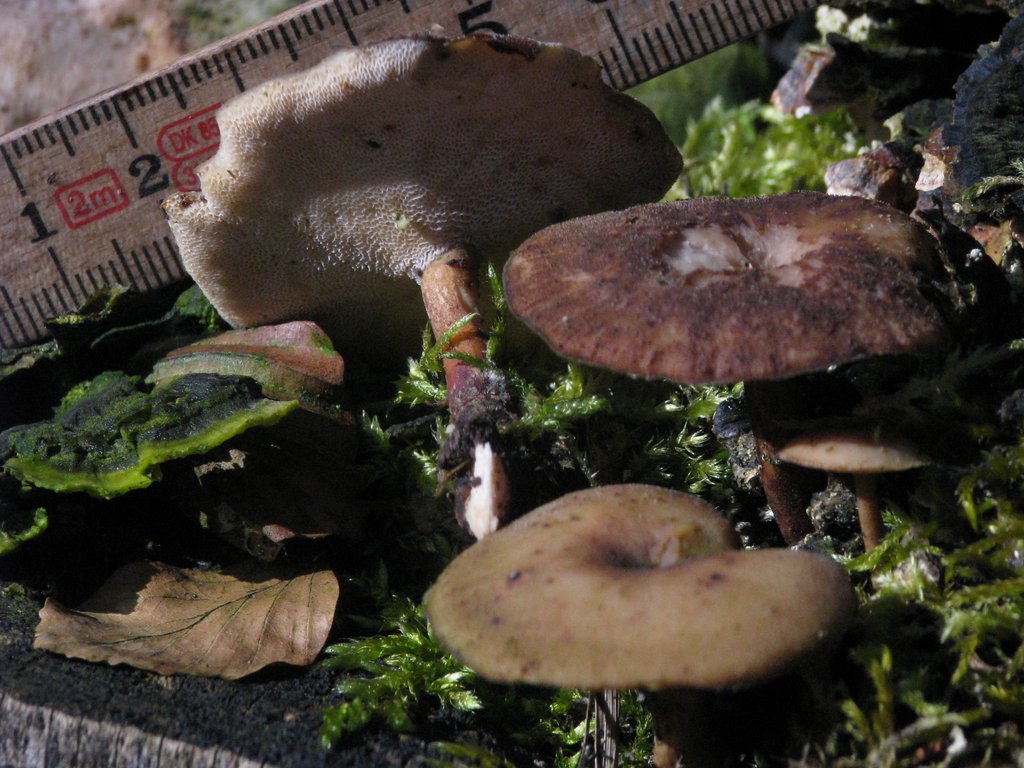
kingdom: Fungi
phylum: Basidiomycota
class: Agaricomycetes
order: Polyporales
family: Polyporaceae
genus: Lentinus
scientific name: Lentinus brumalis
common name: vinter-stilkporesvamp
